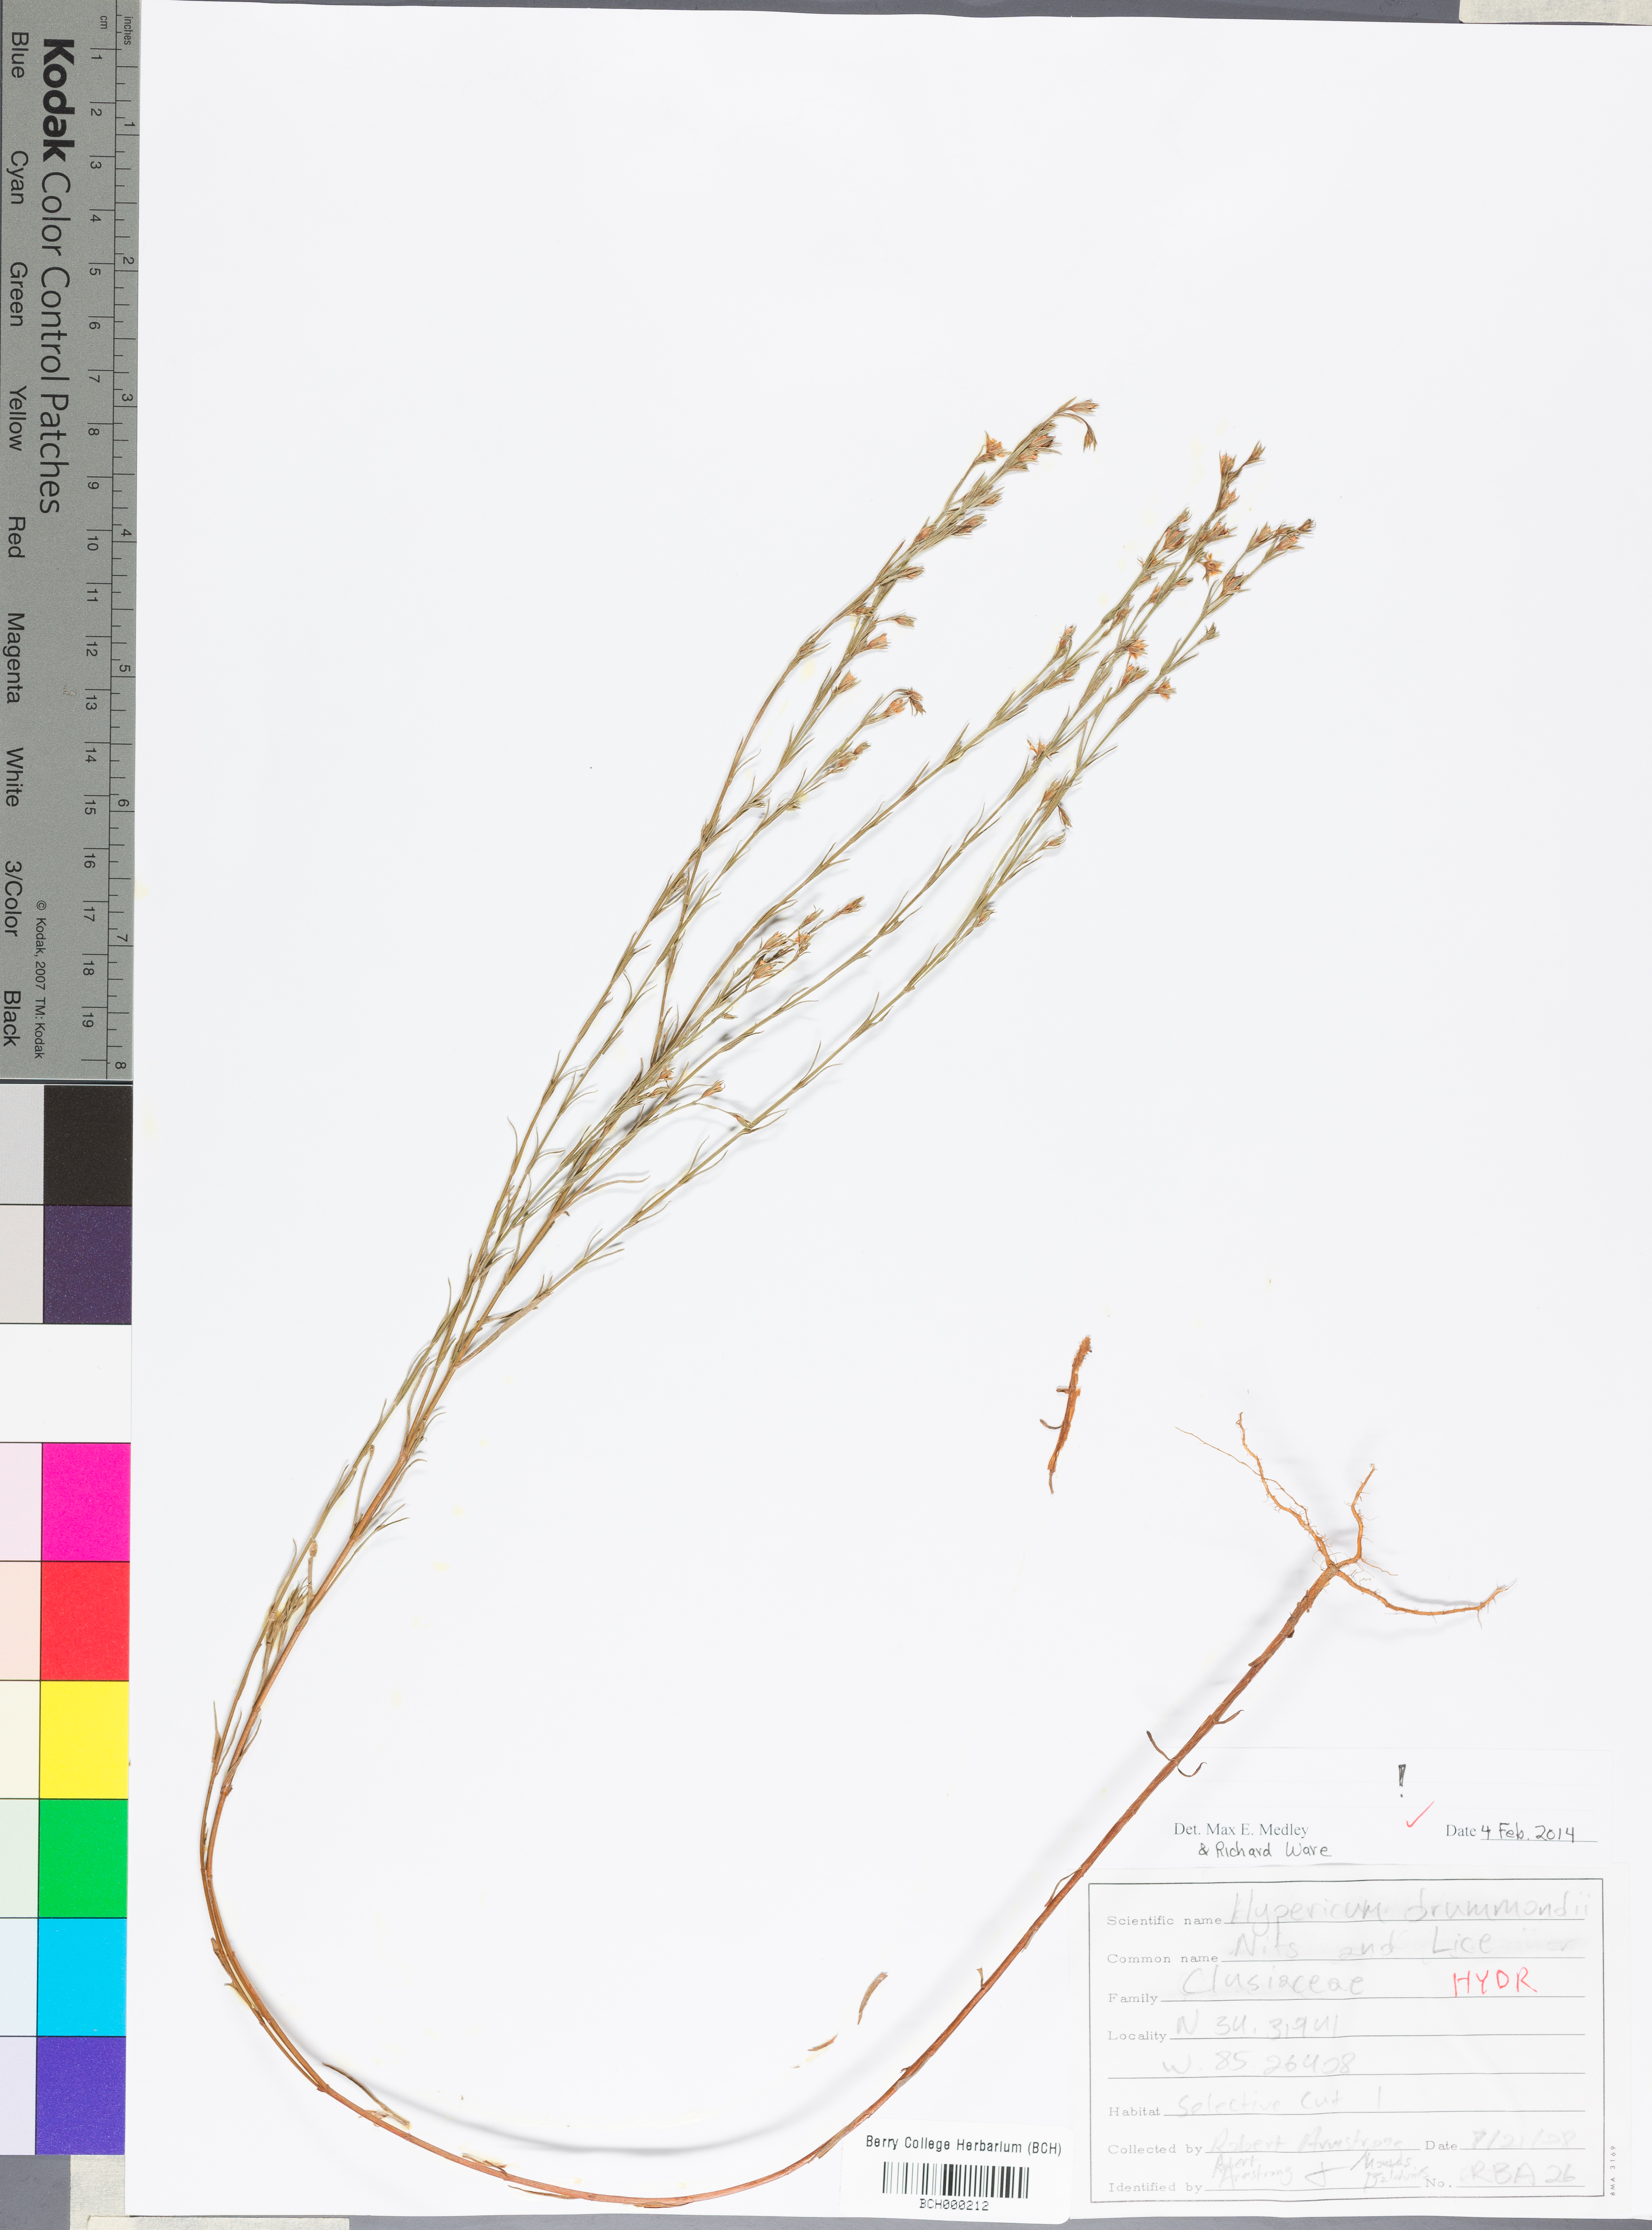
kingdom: Plantae
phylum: Tracheophyta
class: Magnoliopsida
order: Malpighiales
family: Hypericaceae
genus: Hypericum
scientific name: Hypericum drummondii
